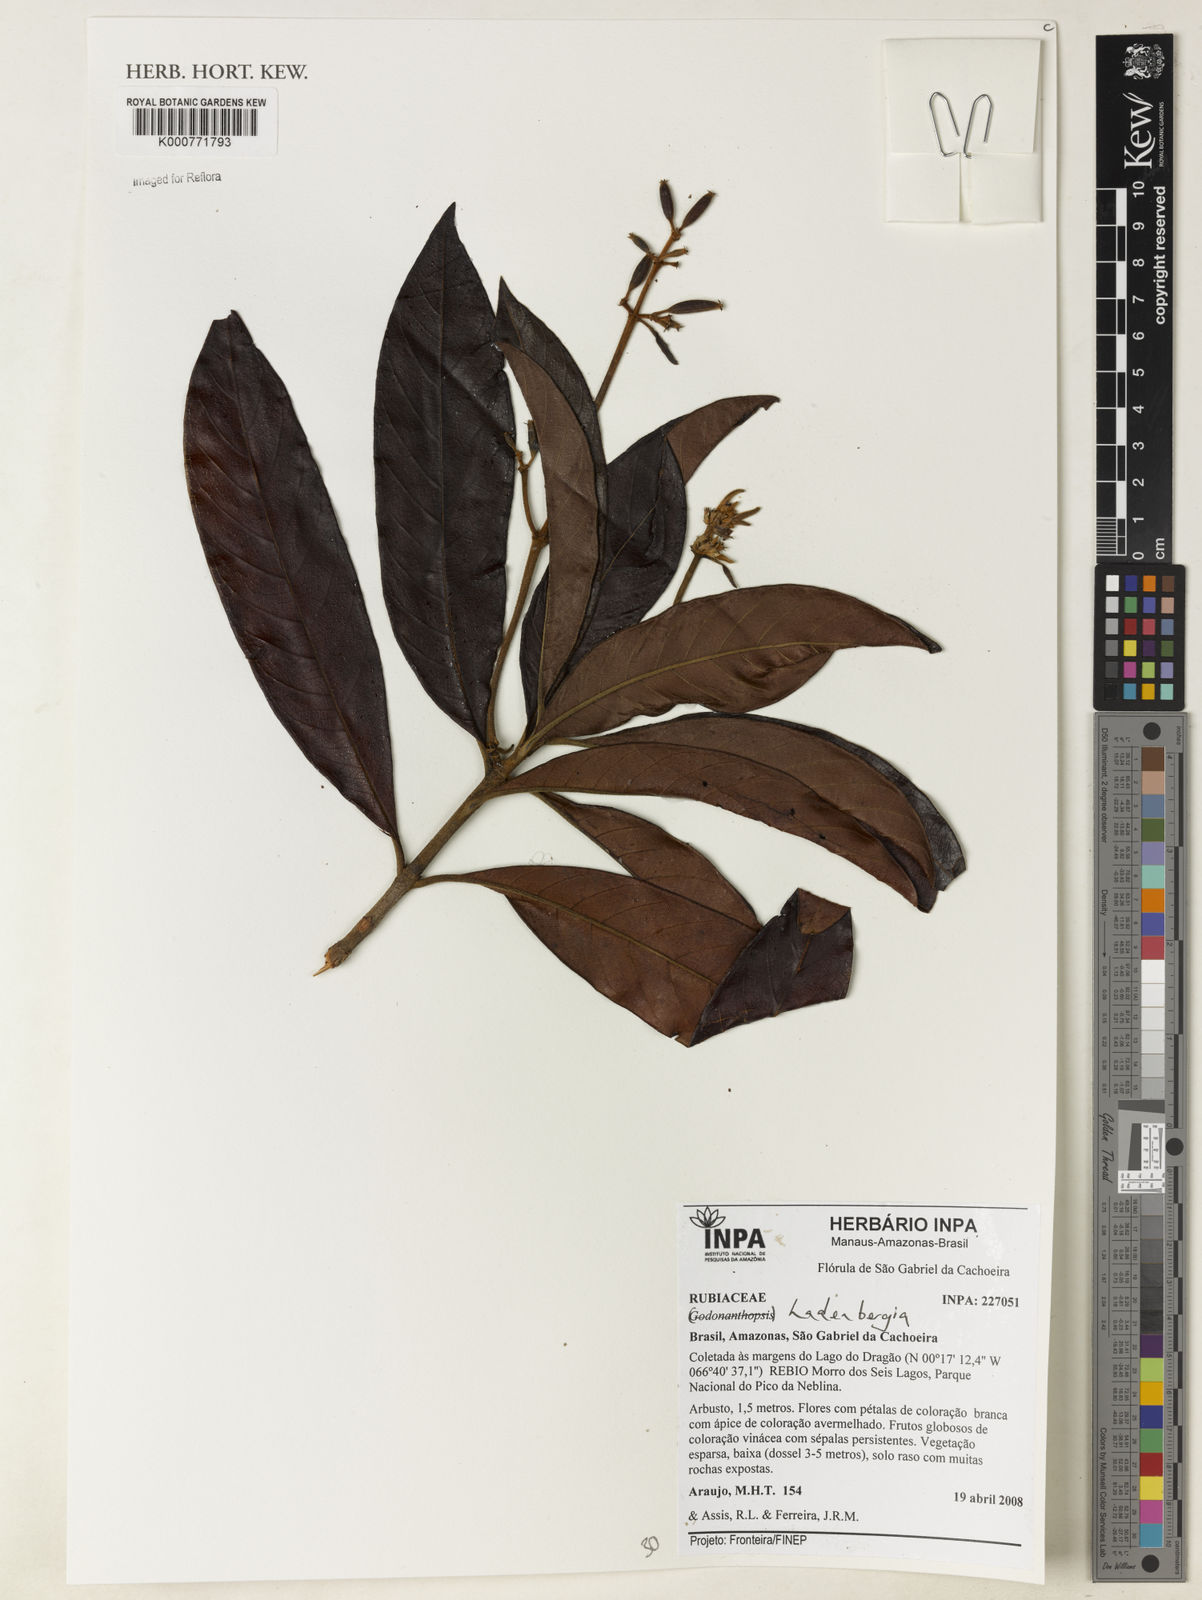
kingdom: Plantae
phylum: Tracheophyta
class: Magnoliopsida
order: Gentianales
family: Rubiaceae
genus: Ladenbergia
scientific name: Ladenbergia
